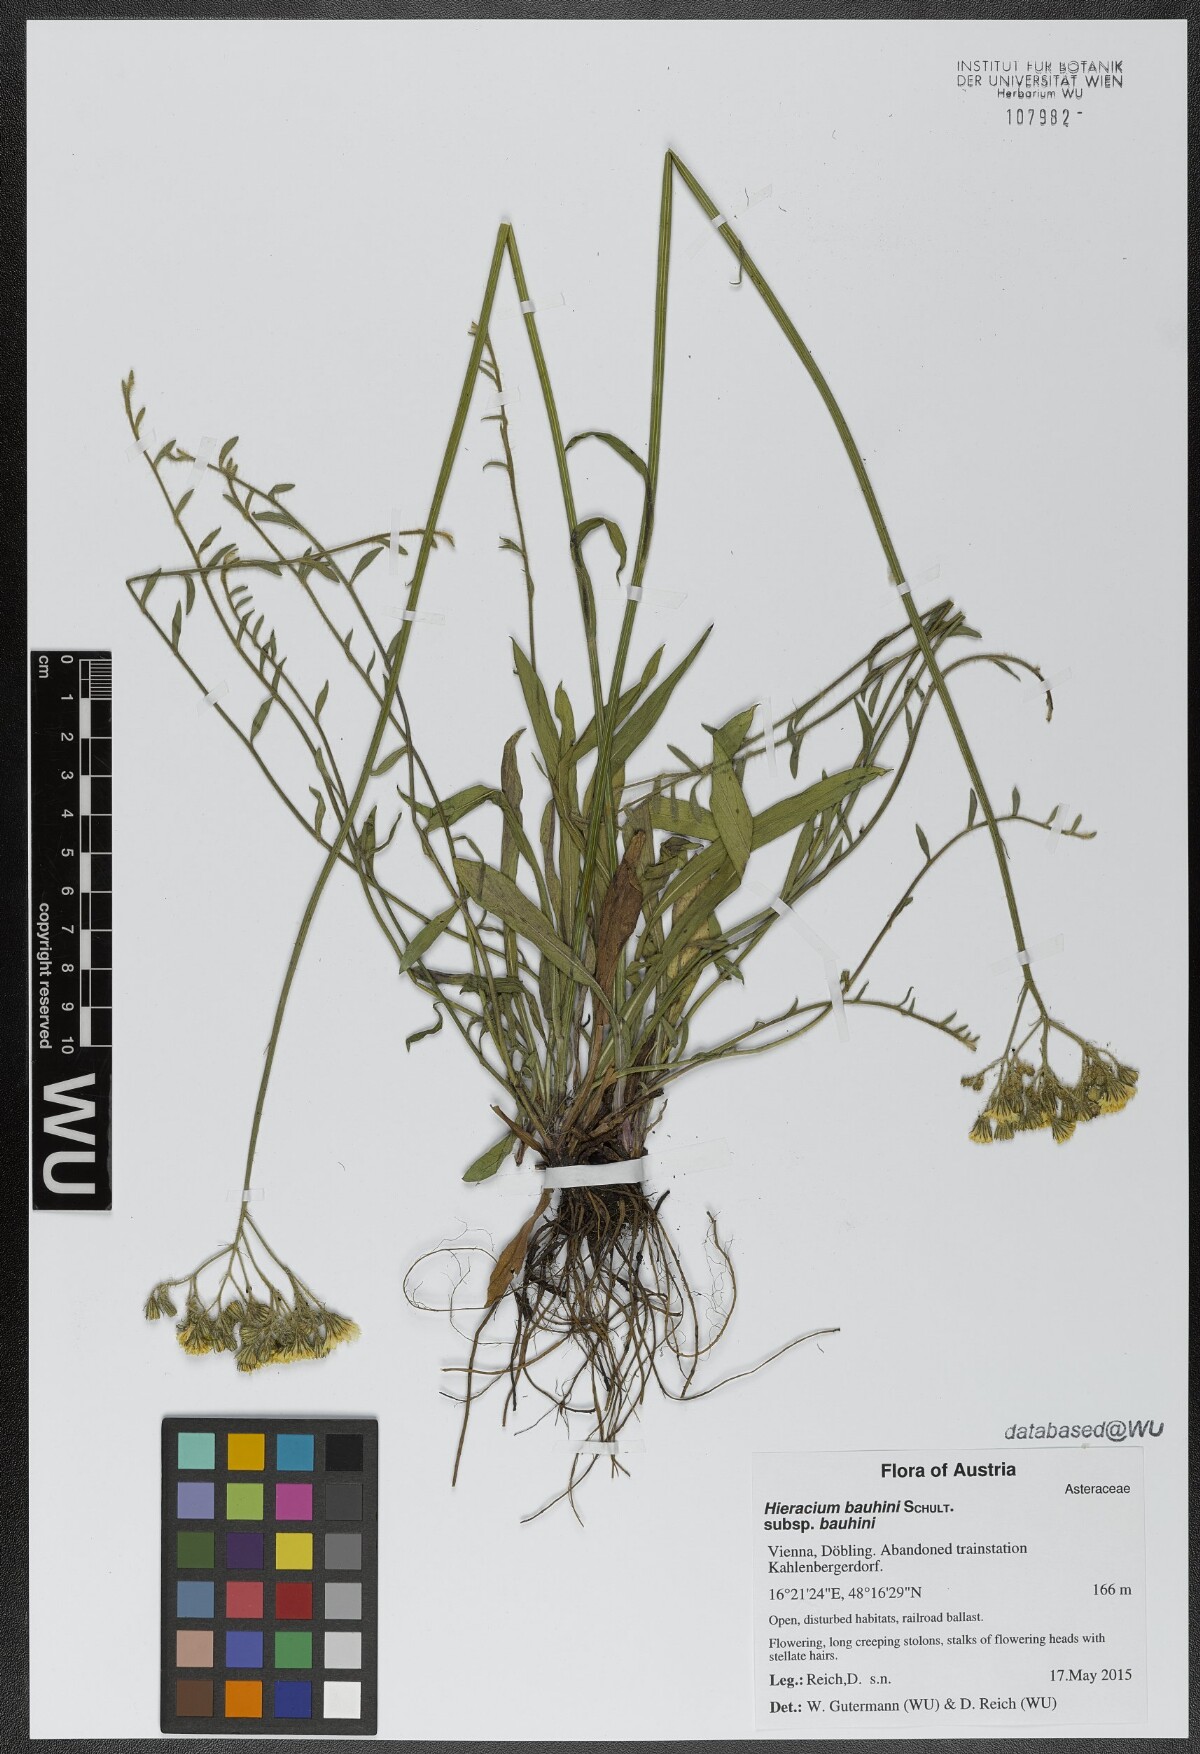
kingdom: Plantae
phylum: Tracheophyta
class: Magnoliopsida
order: Asterales
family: Asteraceae
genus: Pilosella
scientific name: Pilosella bauhini
